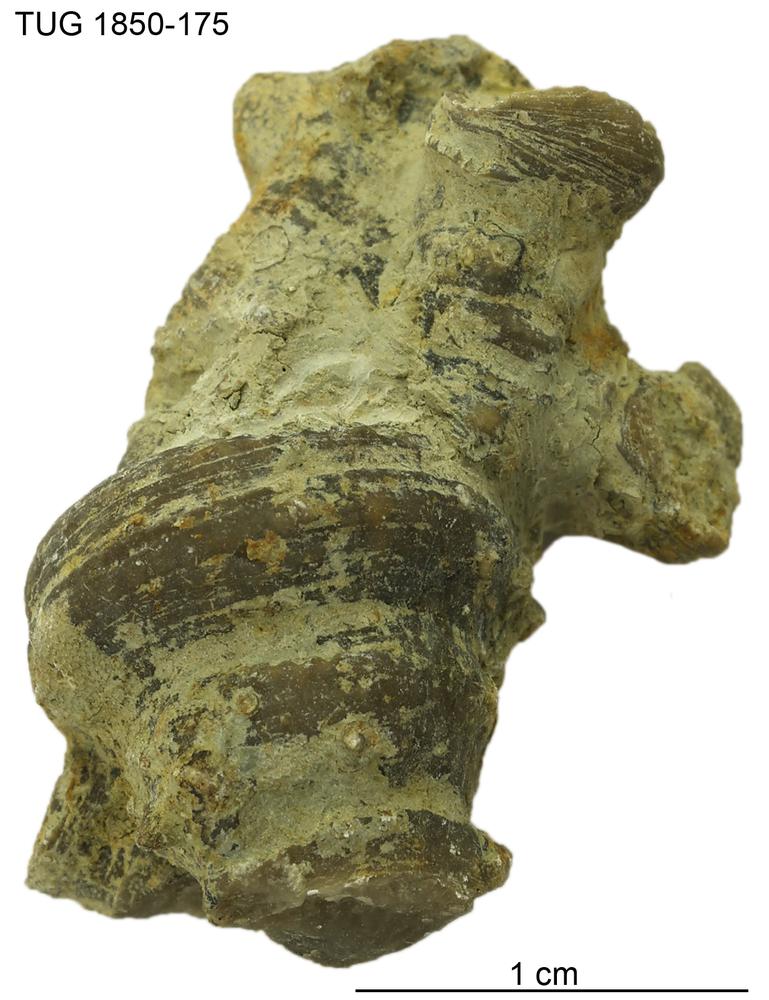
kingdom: Animalia
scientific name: Animalia
